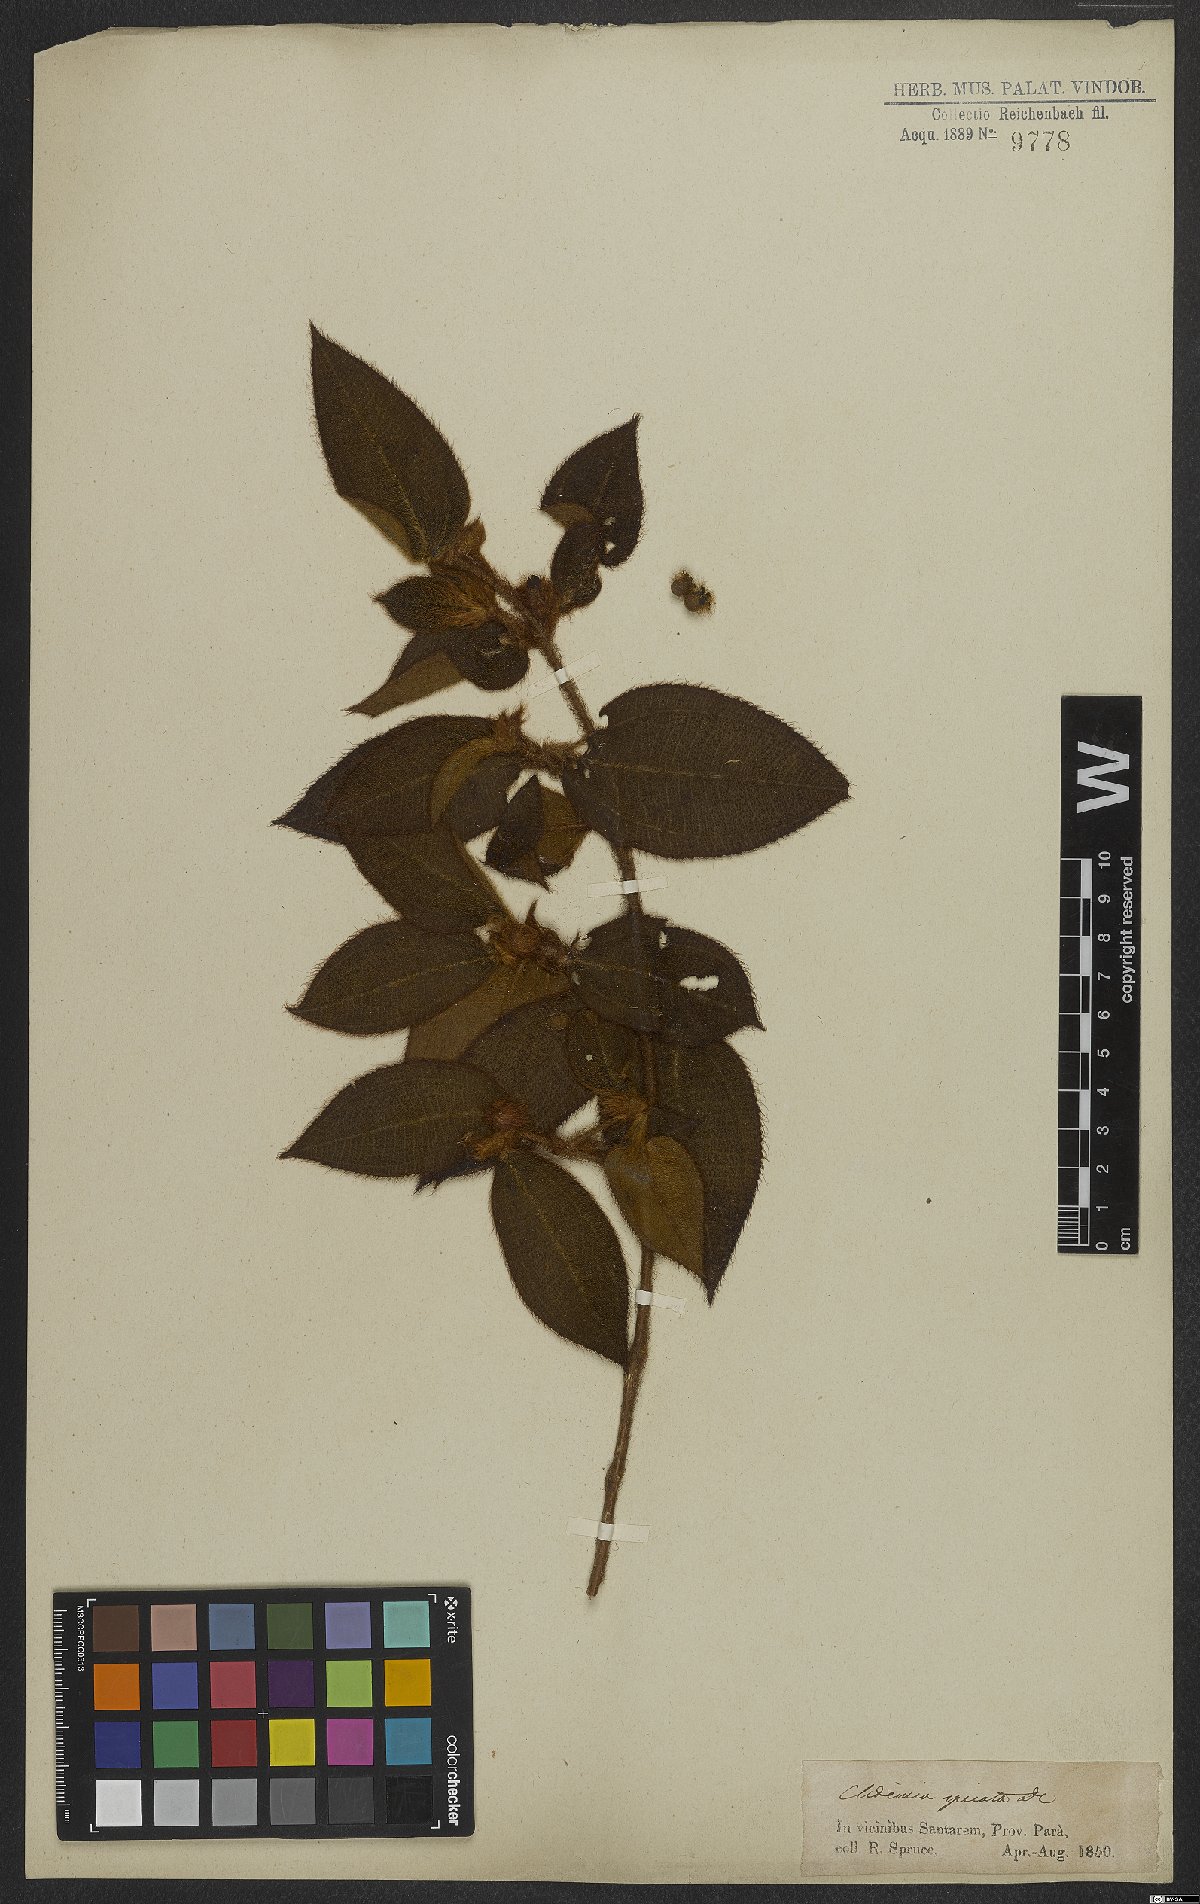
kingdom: Plantae
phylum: Tracheophyta
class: Magnoliopsida
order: Myrtales
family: Melastomataceae
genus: Miconia
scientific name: Miconia dependens
